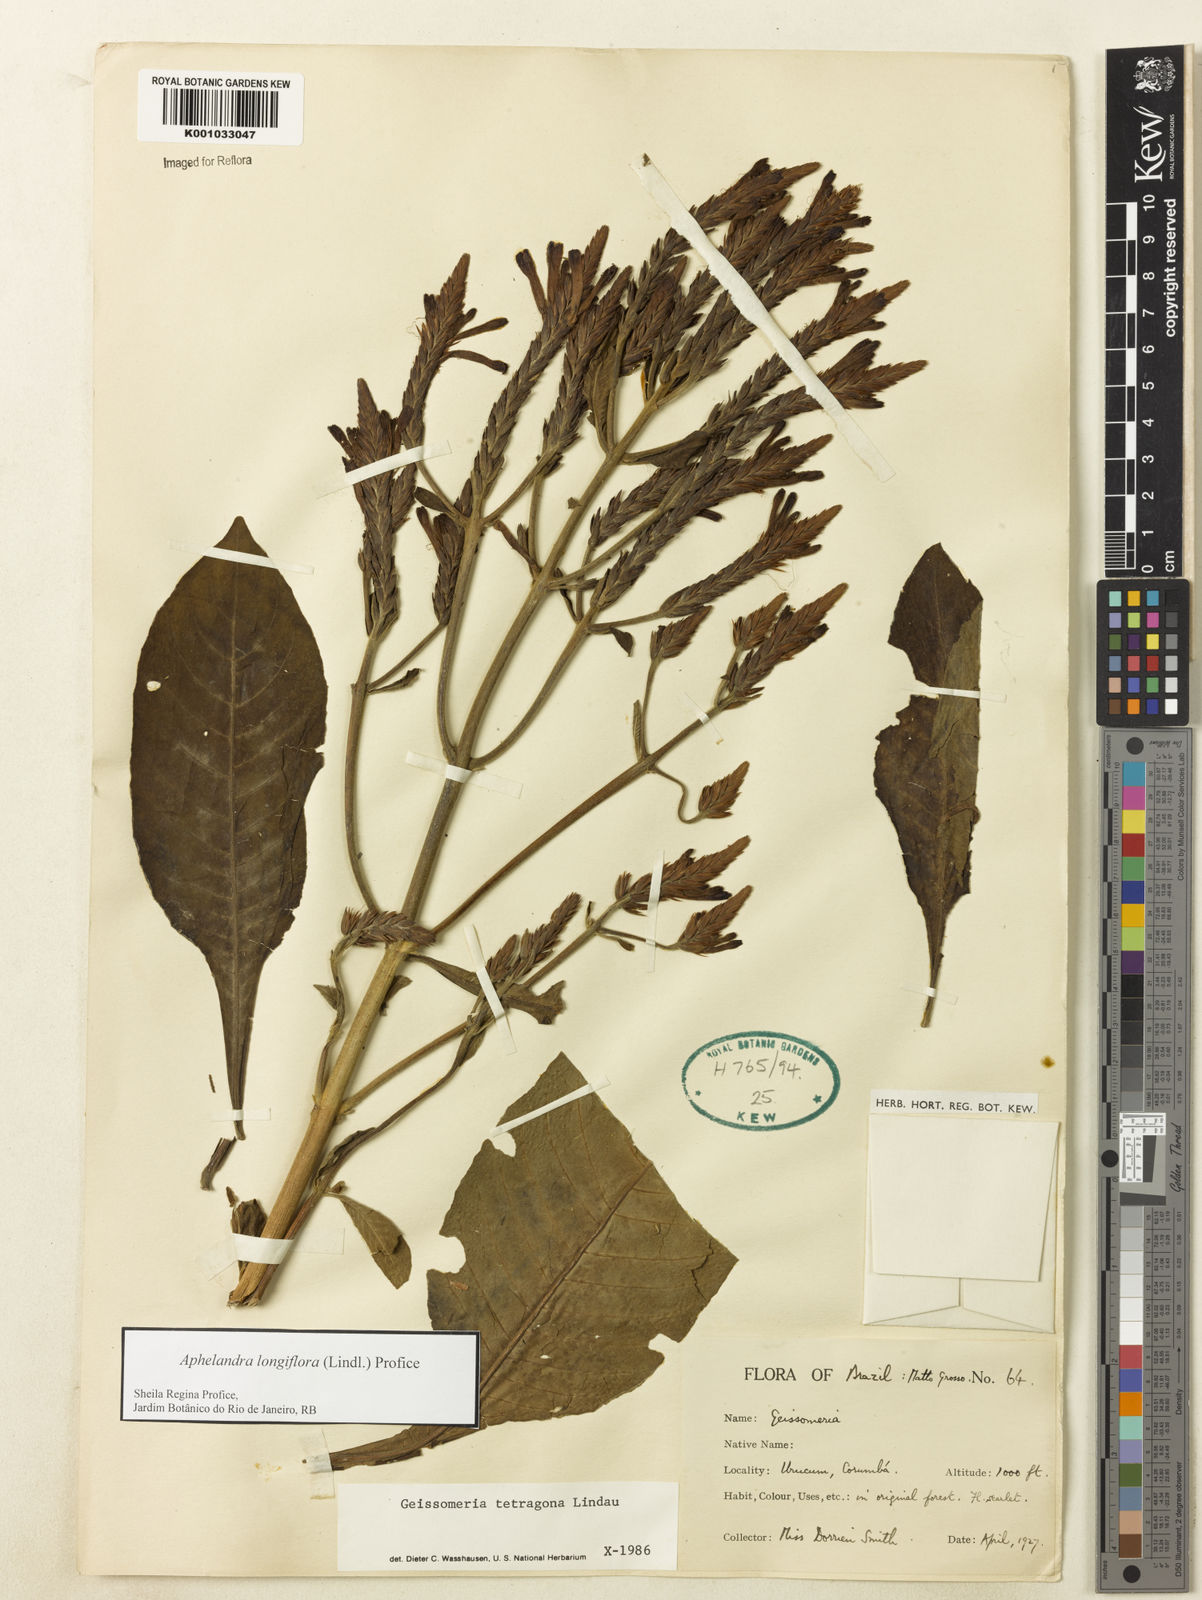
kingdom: Plantae
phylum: Tracheophyta
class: Magnoliopsida
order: Lamiales
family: Acanthaceae
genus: Aphelandra
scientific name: Aphelandra longiflora
